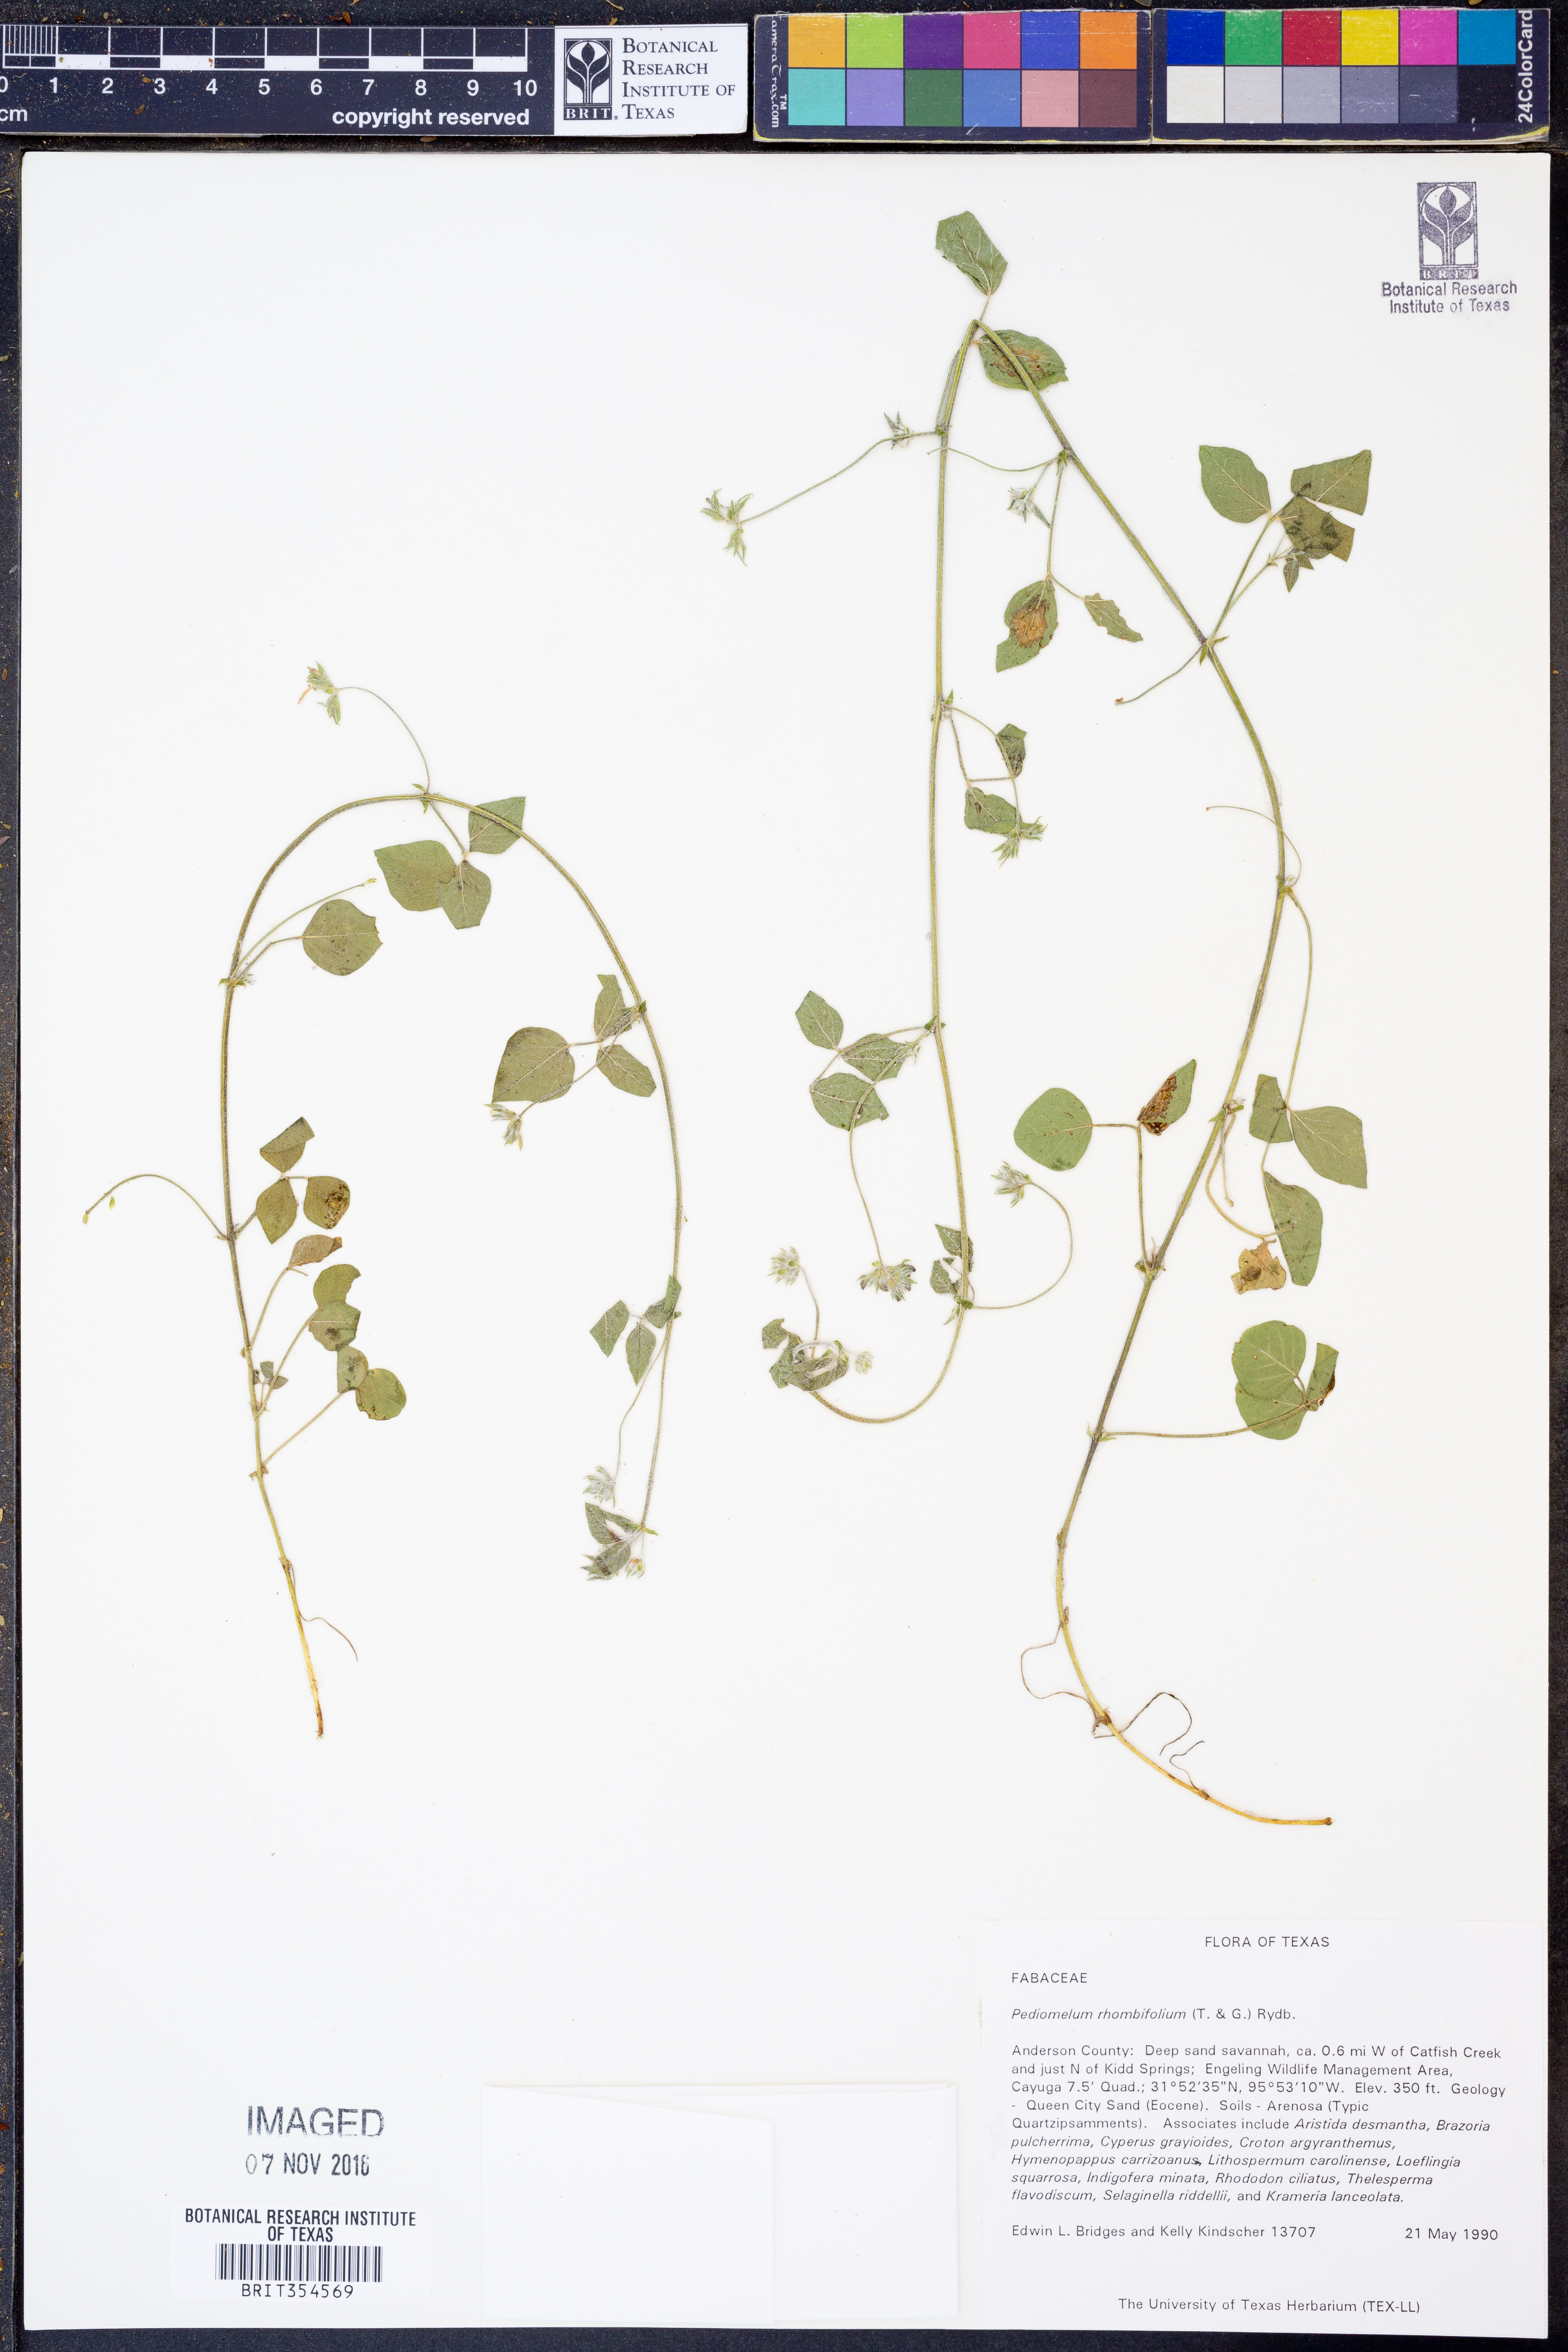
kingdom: Plantae
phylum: Tracheophyta
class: Magnoliopsida
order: Fabales
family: Fabaceae
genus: Pediomelum
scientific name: Pediomelum rhombifolium
